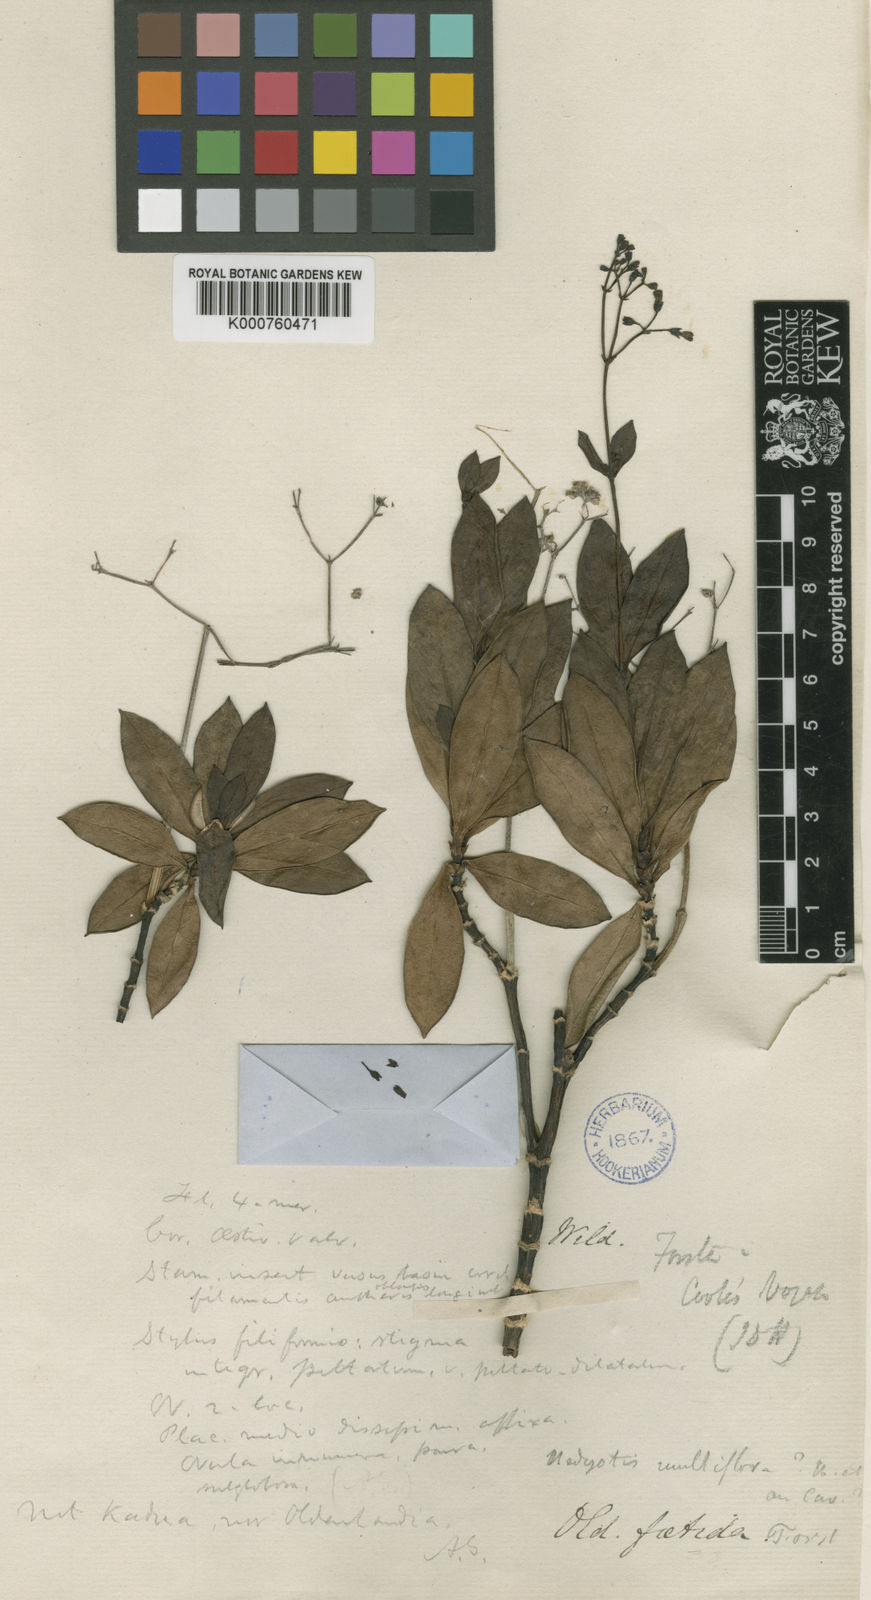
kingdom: Plantae
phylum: Tracheophyta
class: Magnoliopsida
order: Gentianales
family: Rubiaceae
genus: Leptopetalum
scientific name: Leptopetalum foetidum
